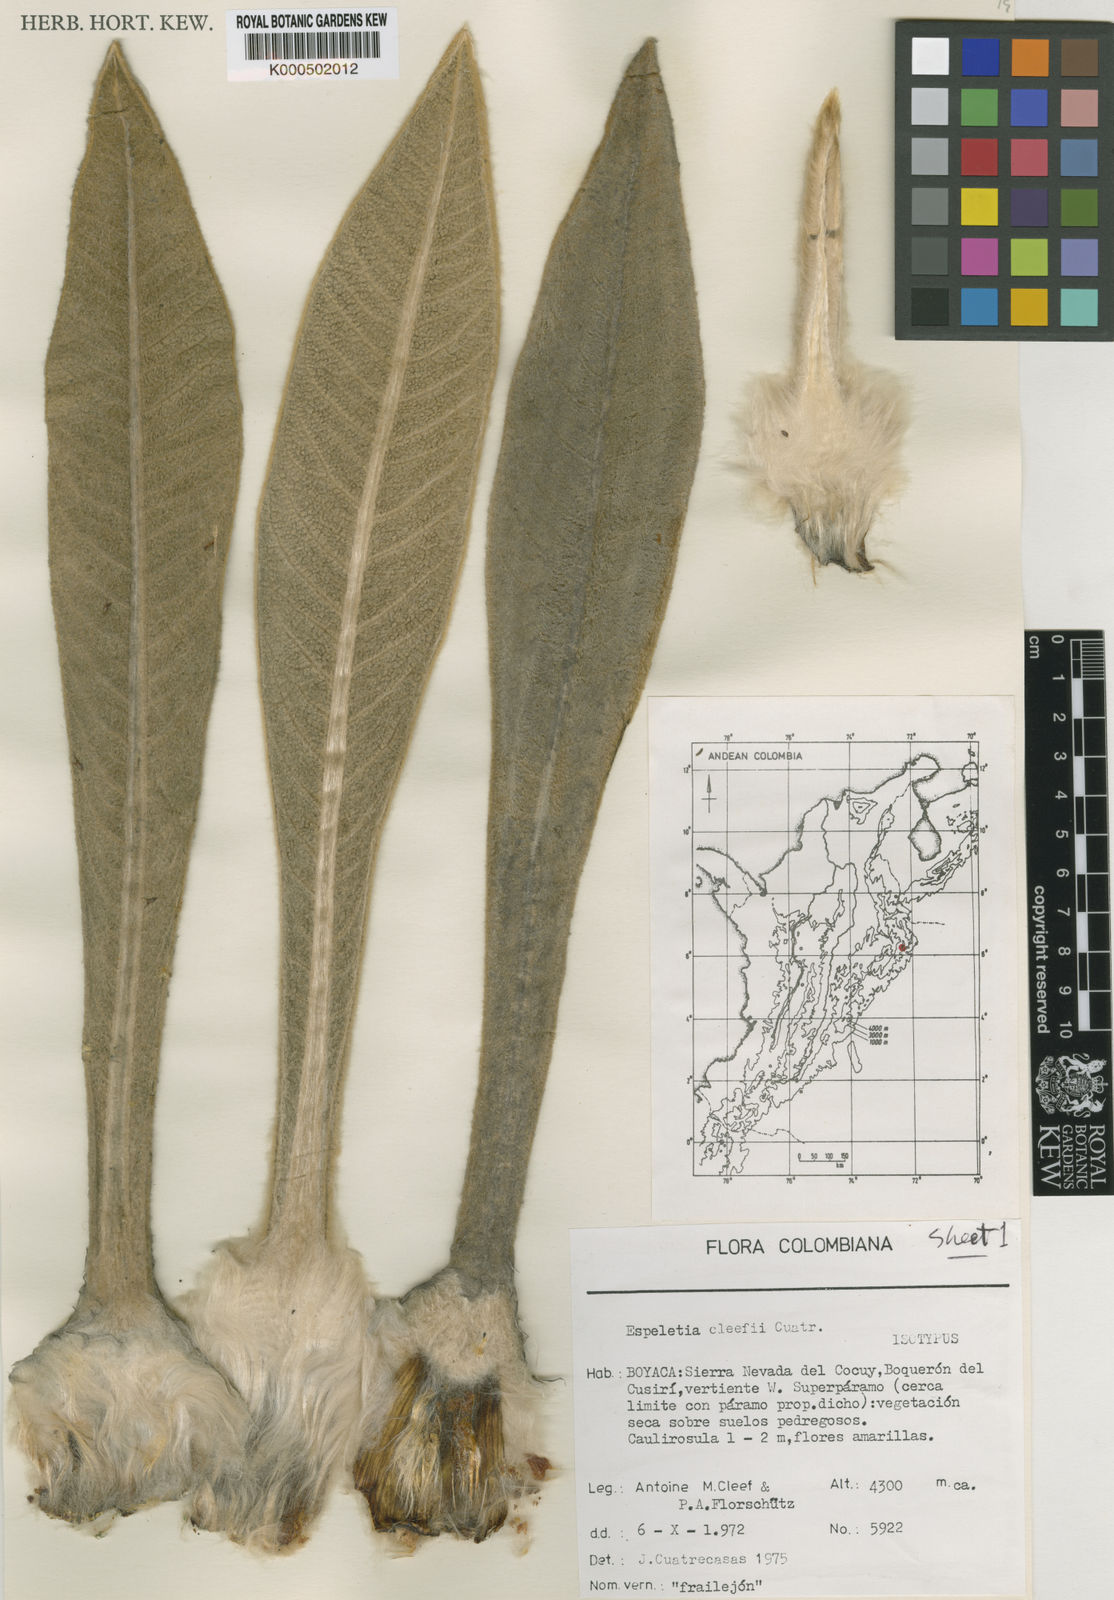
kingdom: Plantae
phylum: Tracheophyta
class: Magnoliopsida
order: Asterales
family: Asteraceae
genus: Espeletia
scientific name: Espeletia cleefii
